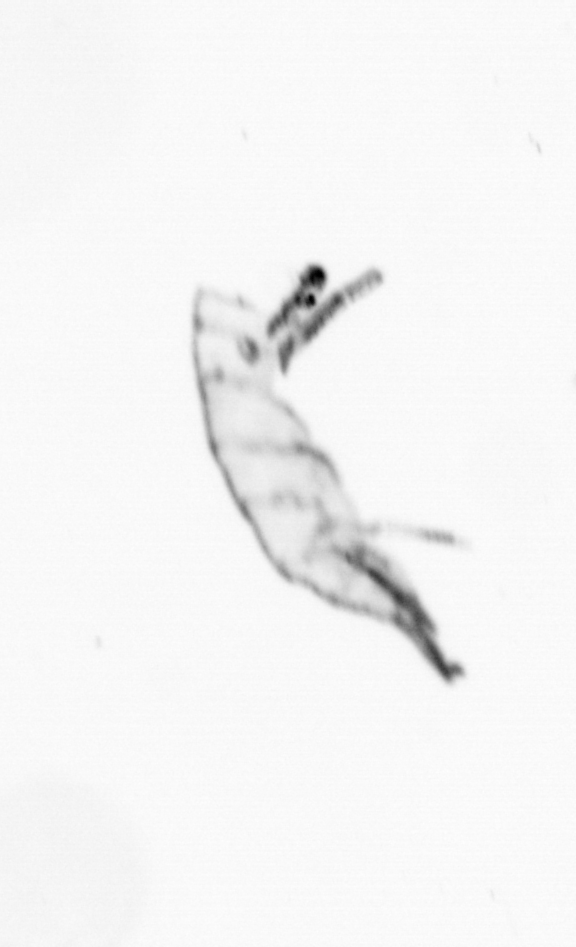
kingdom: Animalia
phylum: Arthropoda
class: Maxillopoda
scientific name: Maxillopoda
